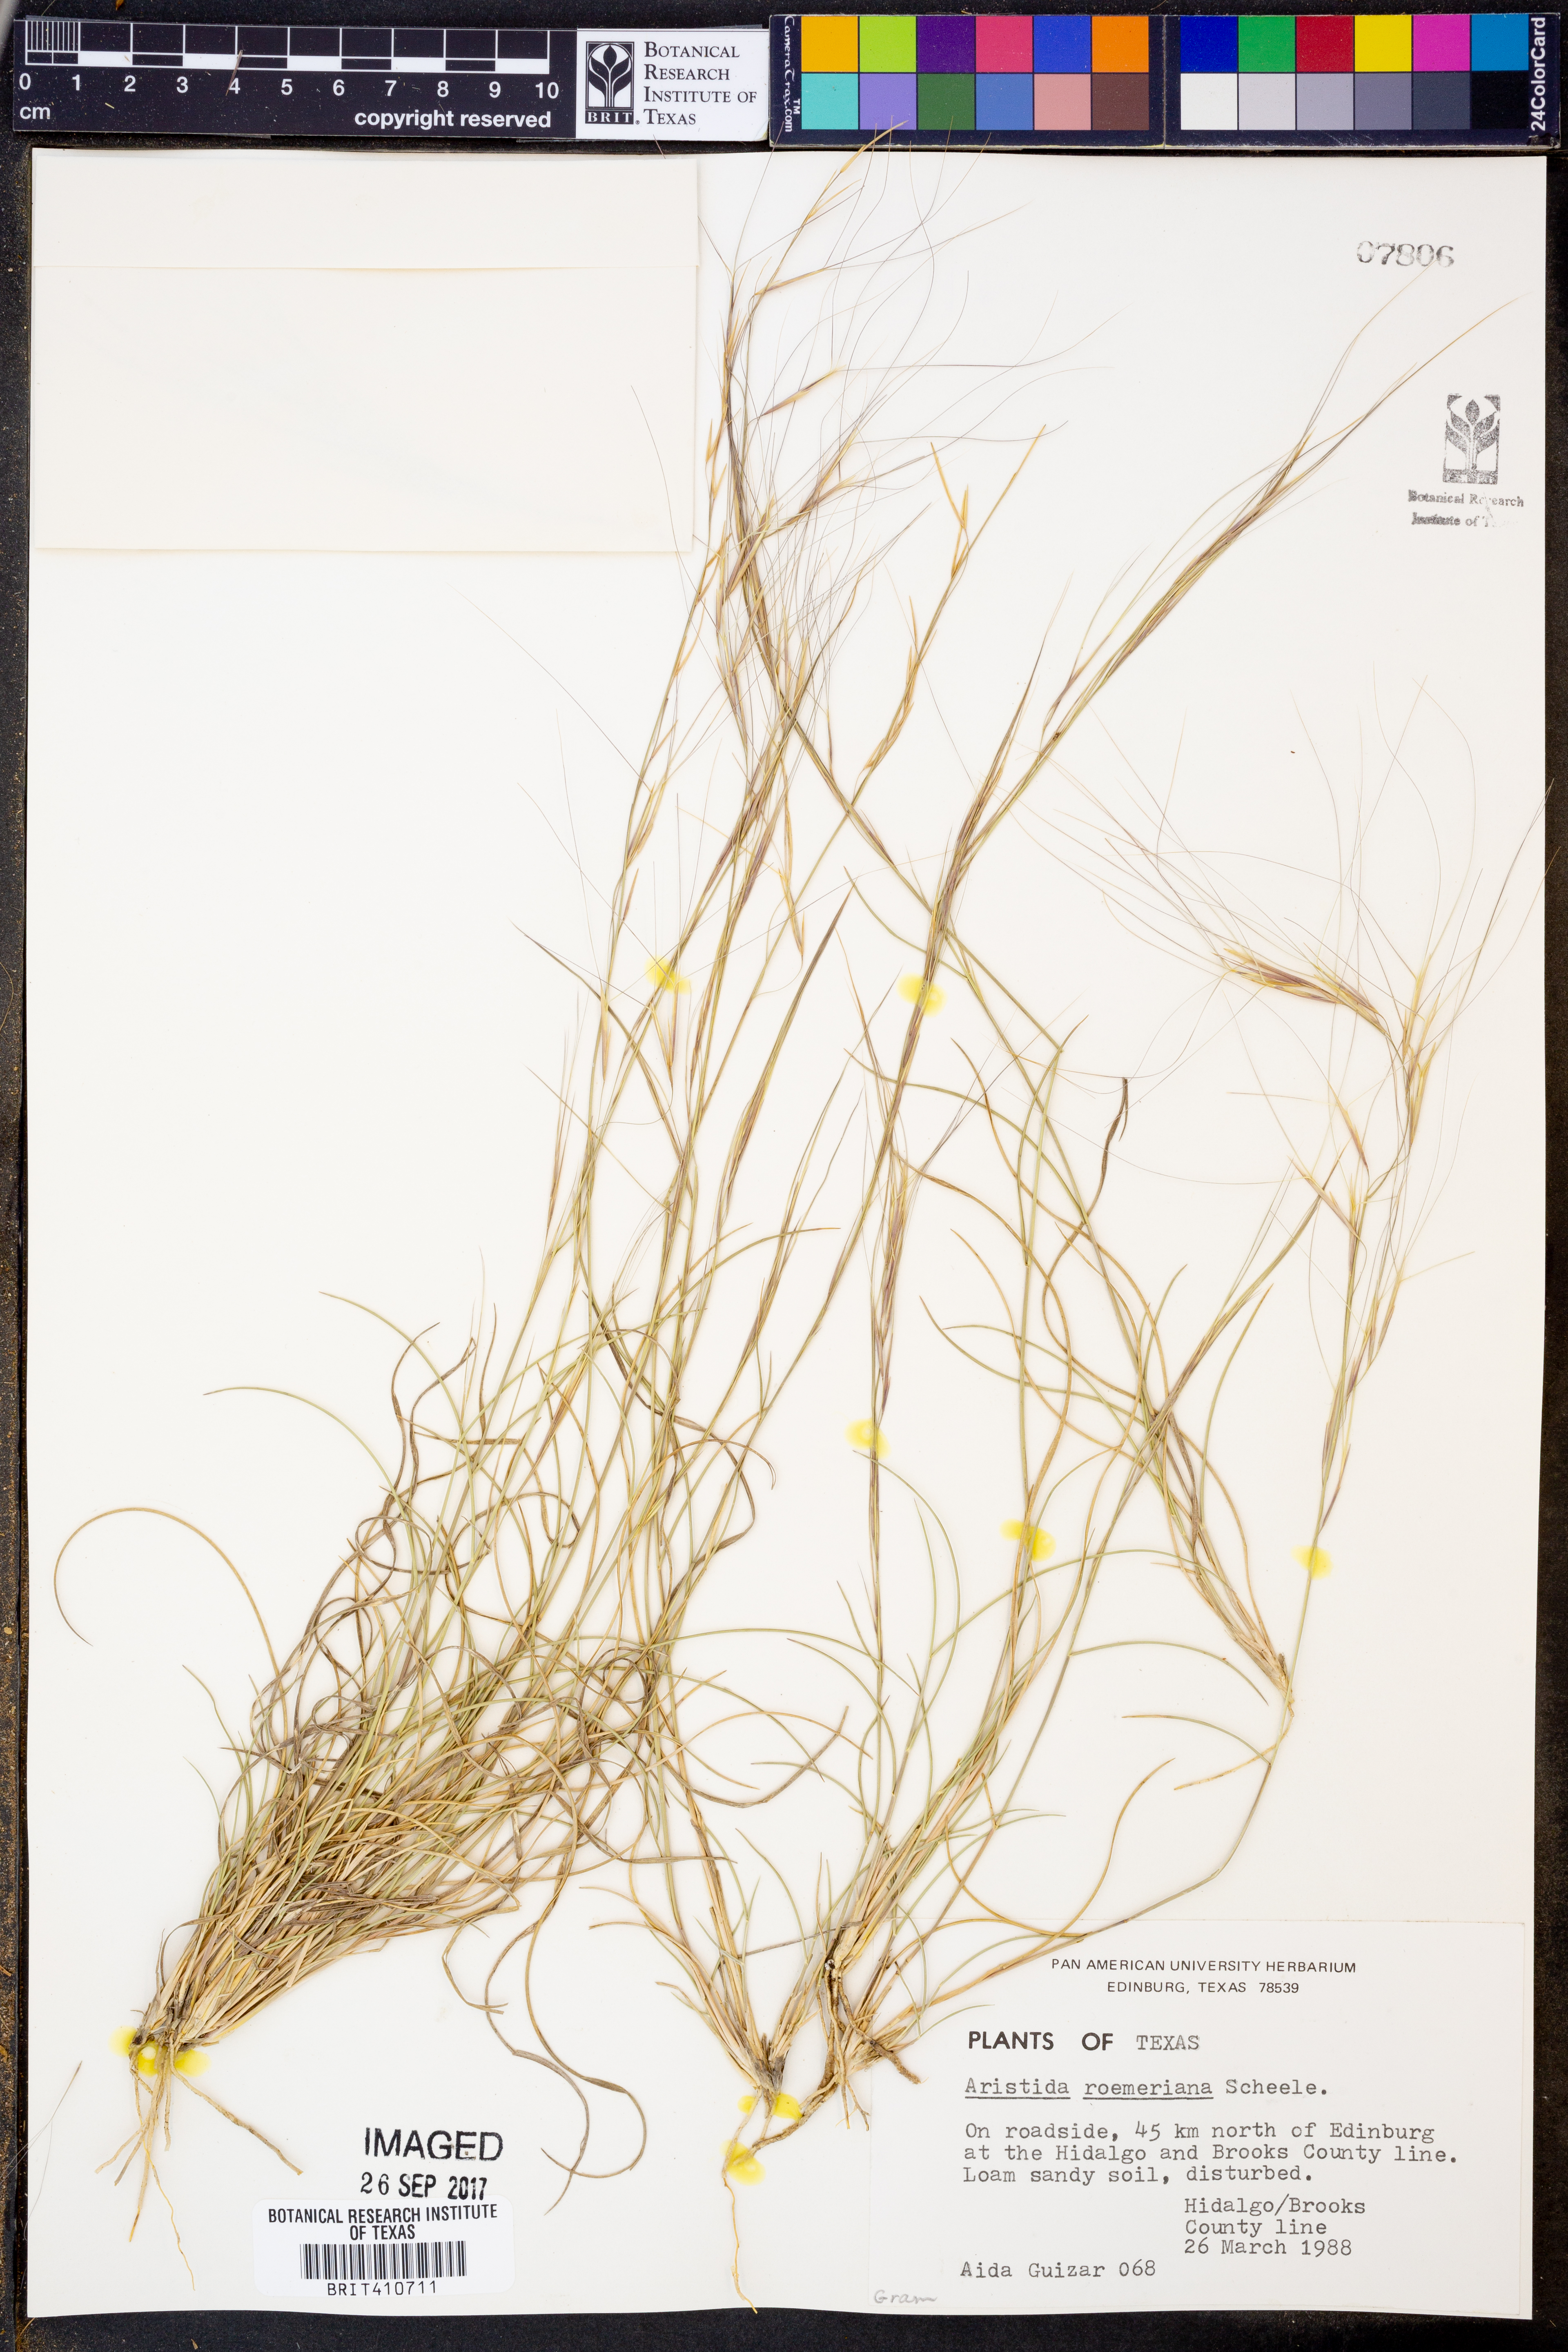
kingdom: Plantae
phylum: Tracheophyta
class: Liliopsida
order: Poales
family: Poaceae
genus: Aristida
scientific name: Aristida purpurea
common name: Purple threeawn
